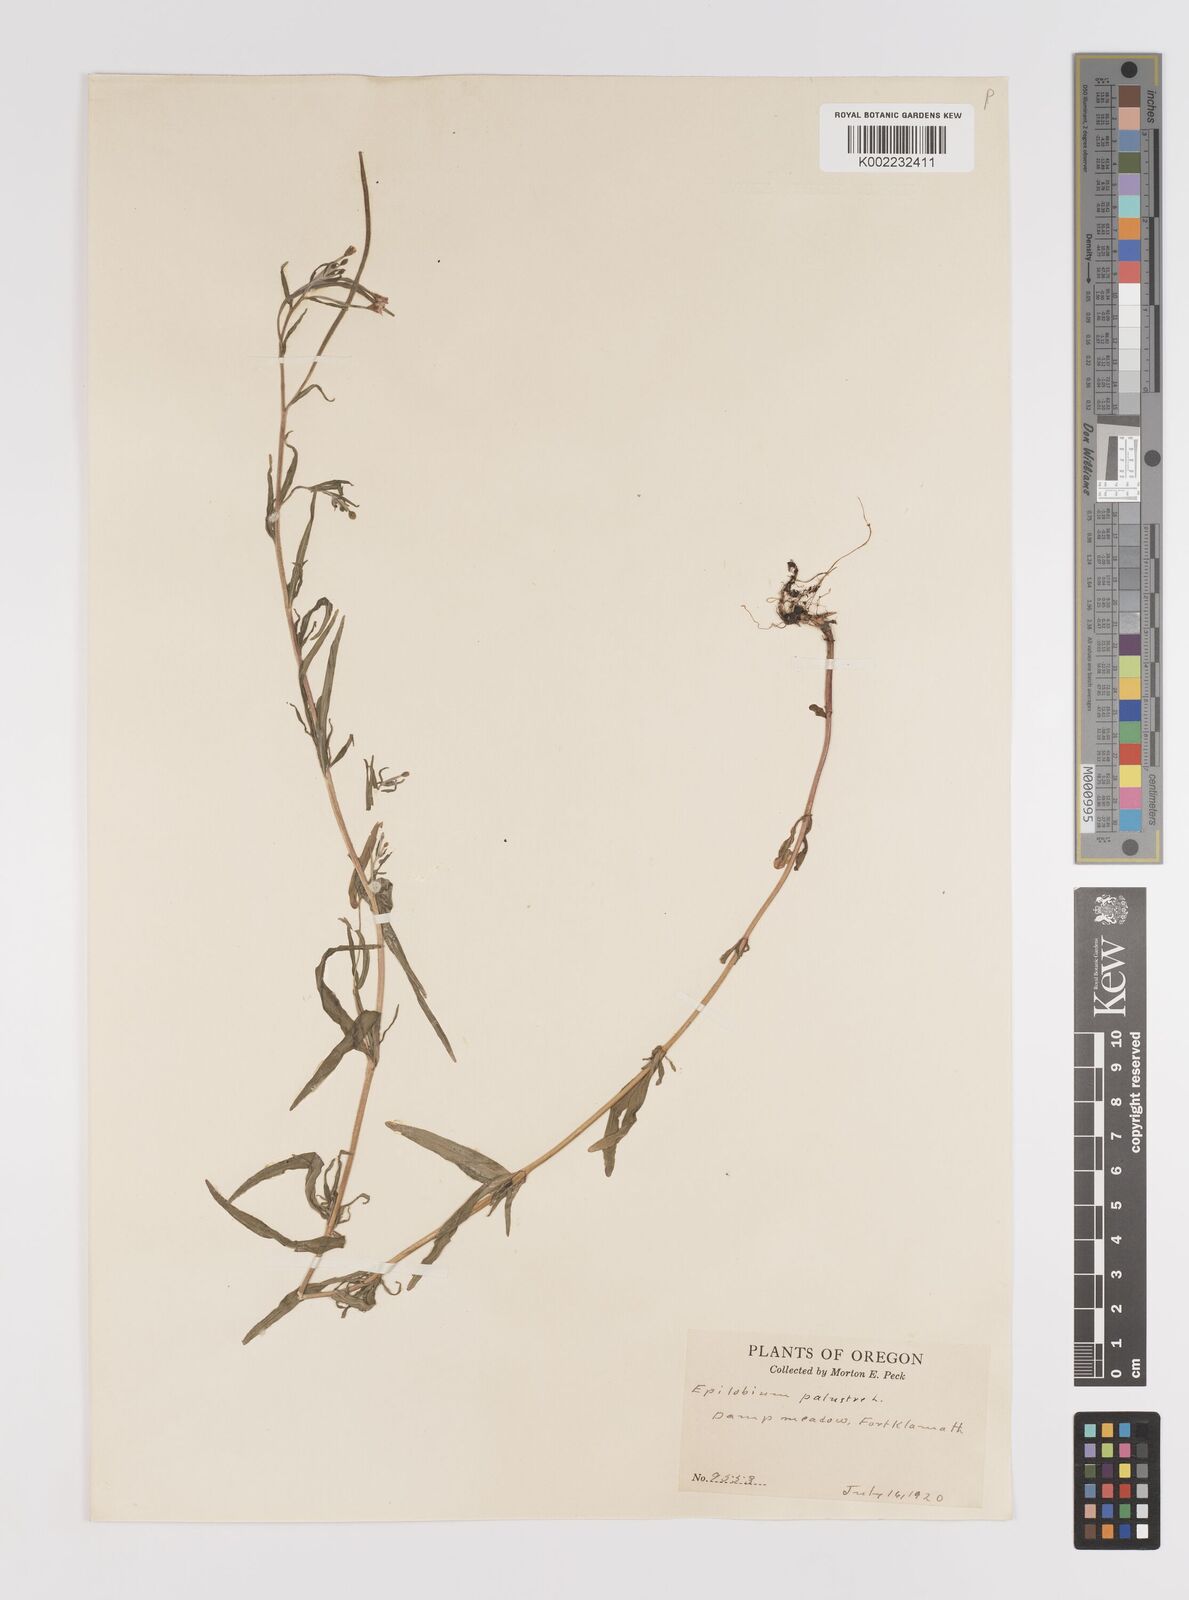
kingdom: Plantae
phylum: Tracheophyta
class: Magnoliopsida
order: Myrtales
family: Onagraceae
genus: Epilobium
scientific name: Epilobium palustre
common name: Marsh willowherb
